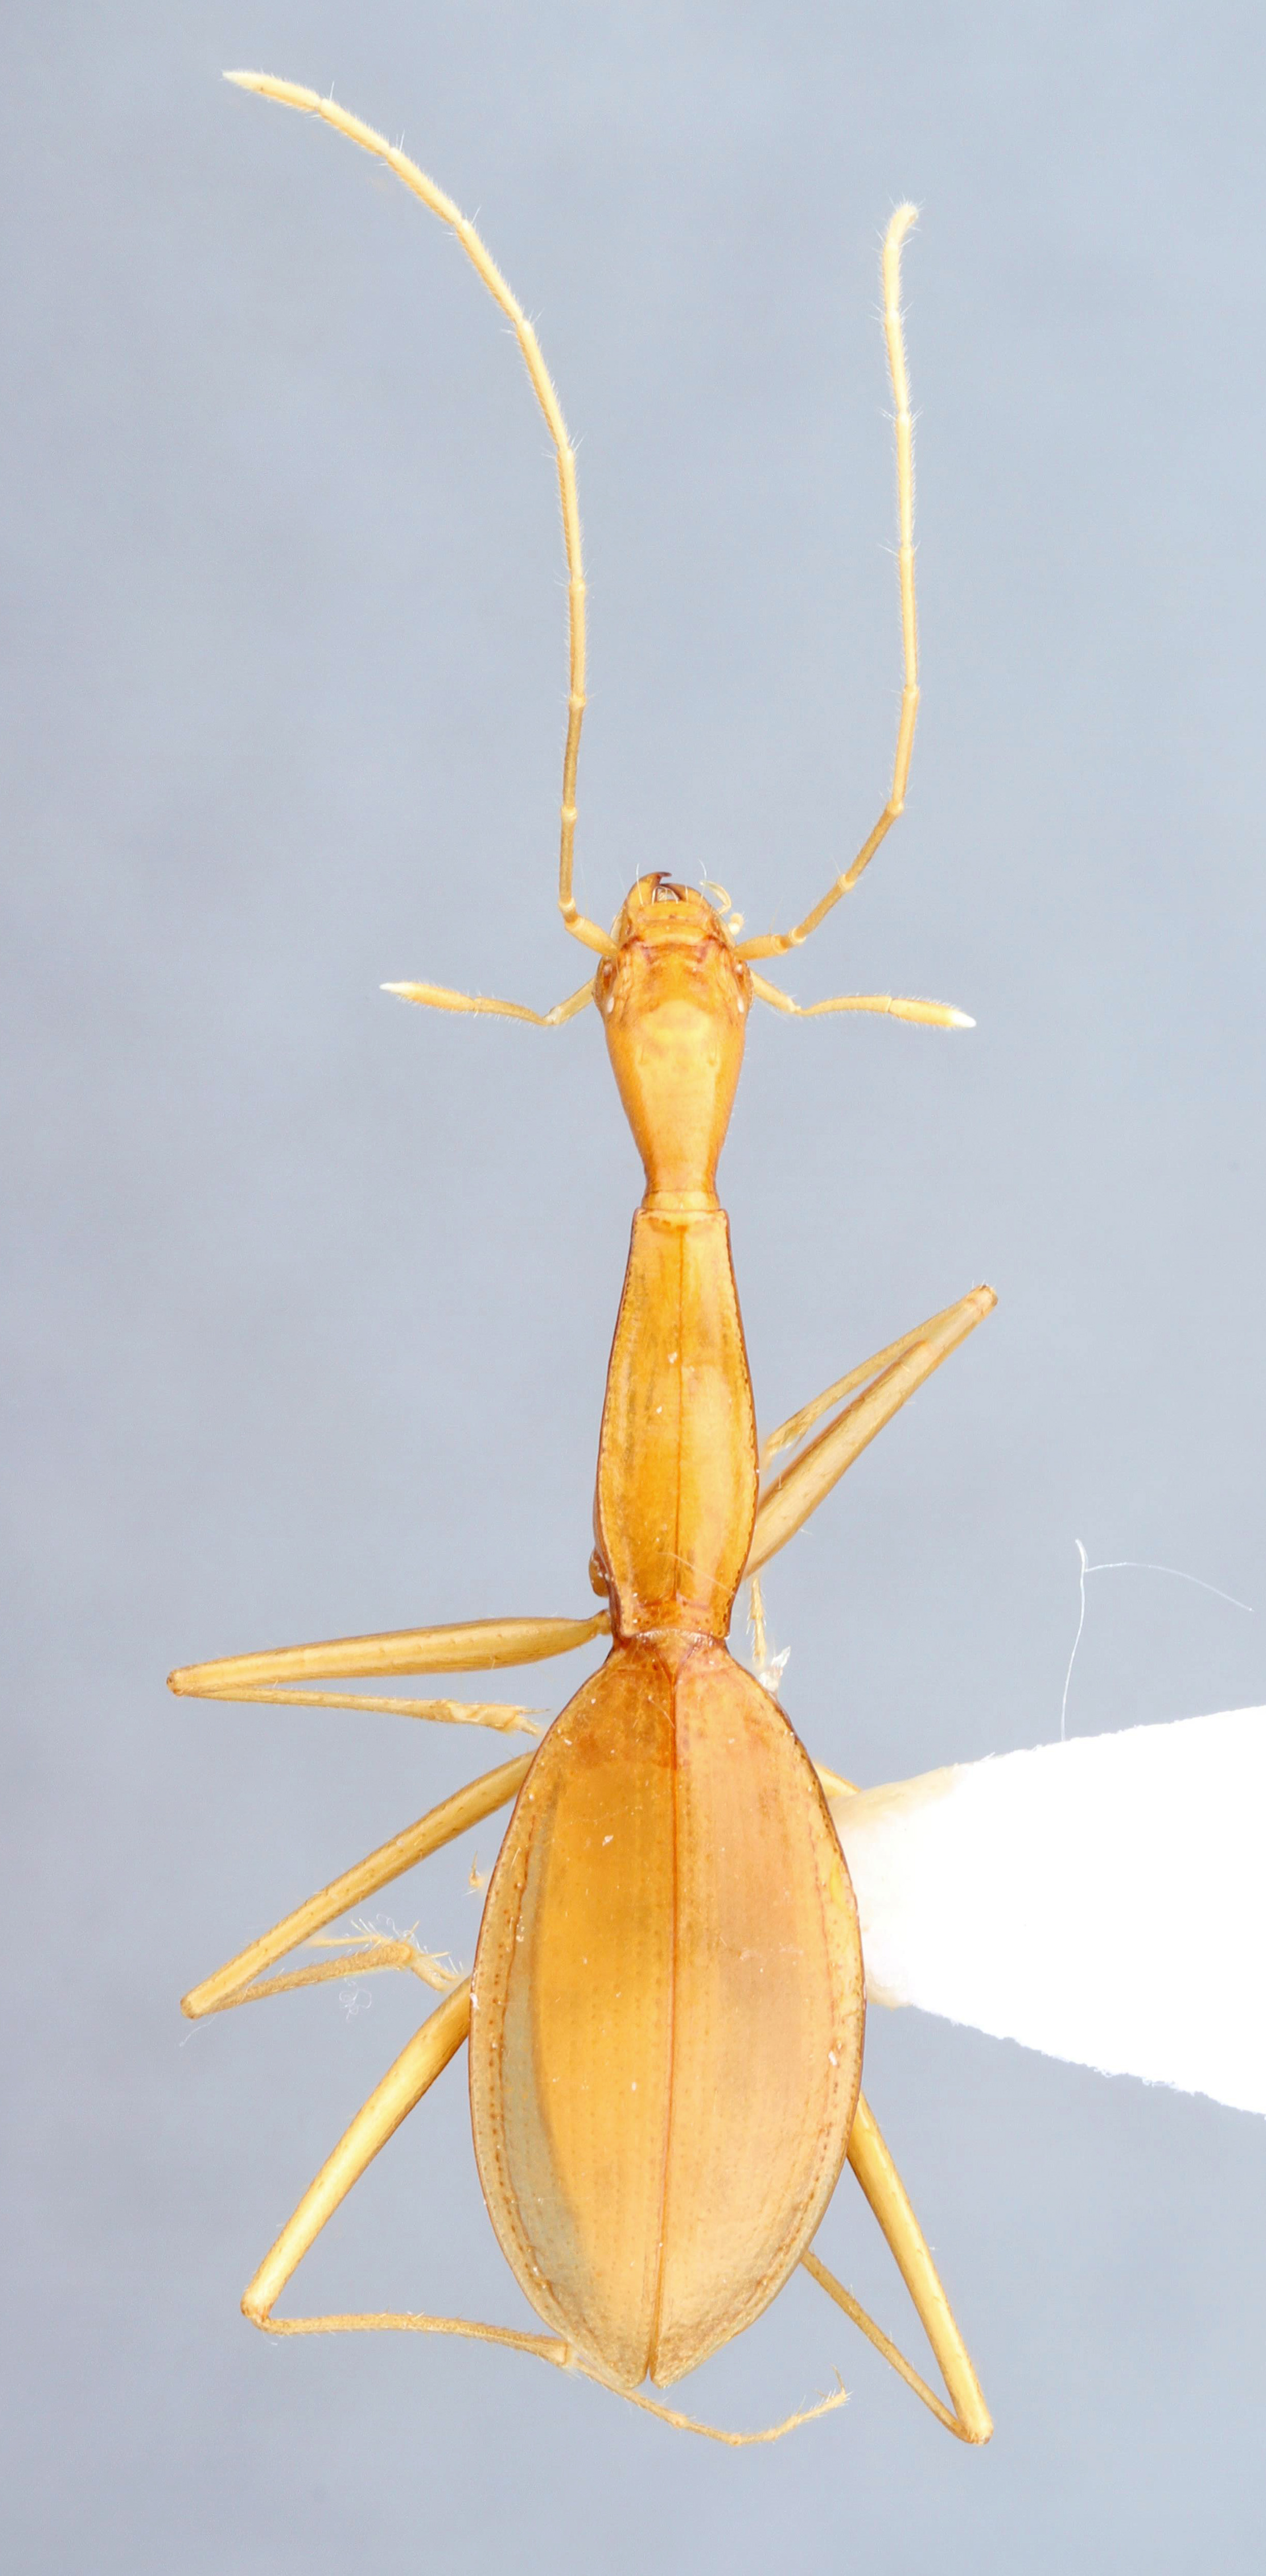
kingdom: Animalia
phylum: Arthropoda
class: Insecta
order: Coleoptera
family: Carabidae
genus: Rhadine
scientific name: Rhadine austinica
